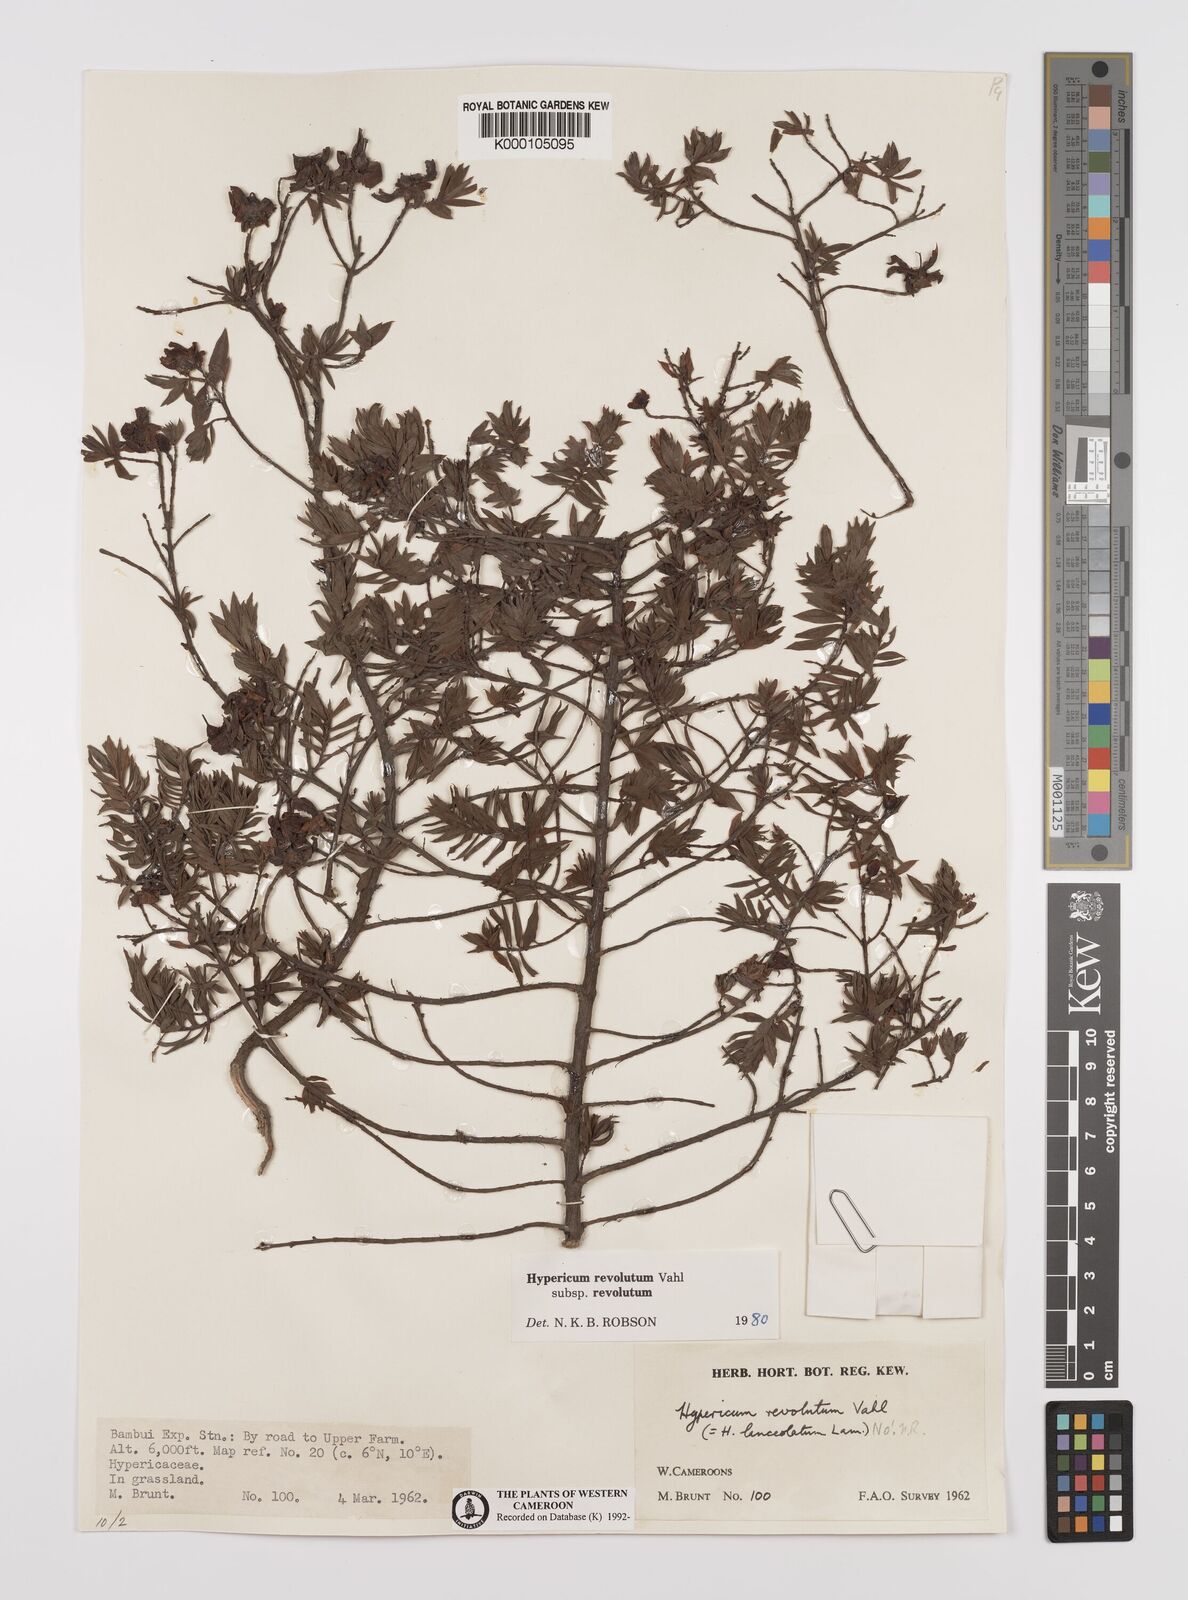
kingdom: Plantae
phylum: Tracheophyta
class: Magnoliopsida
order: Malpighiales
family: Hypericaceae
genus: Hypericum
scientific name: Hypericum revolutum
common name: Curry bush
